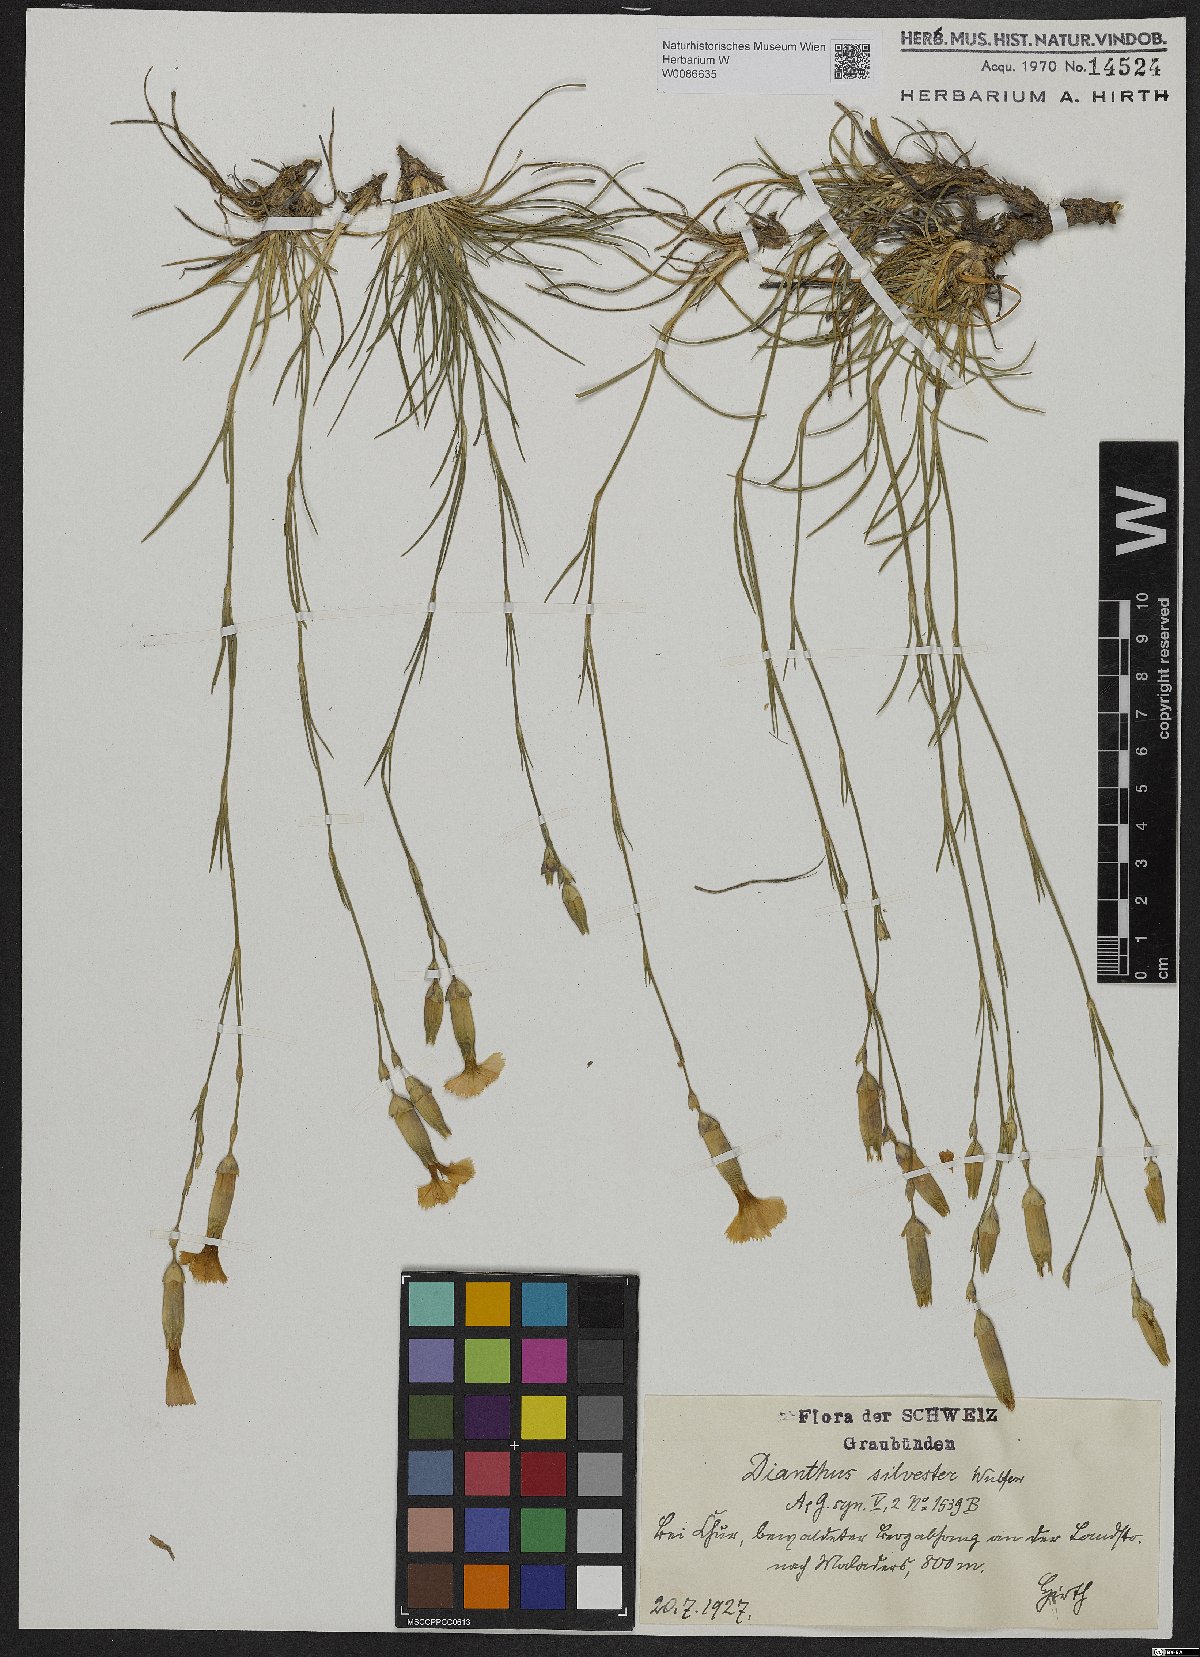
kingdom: Plantae
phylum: Tracheophyta
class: Magnoliopsida
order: Caryophyllales
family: Caryophyllaceae
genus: Dianthus
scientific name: Dianthus sylvestris
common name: Wood pink
